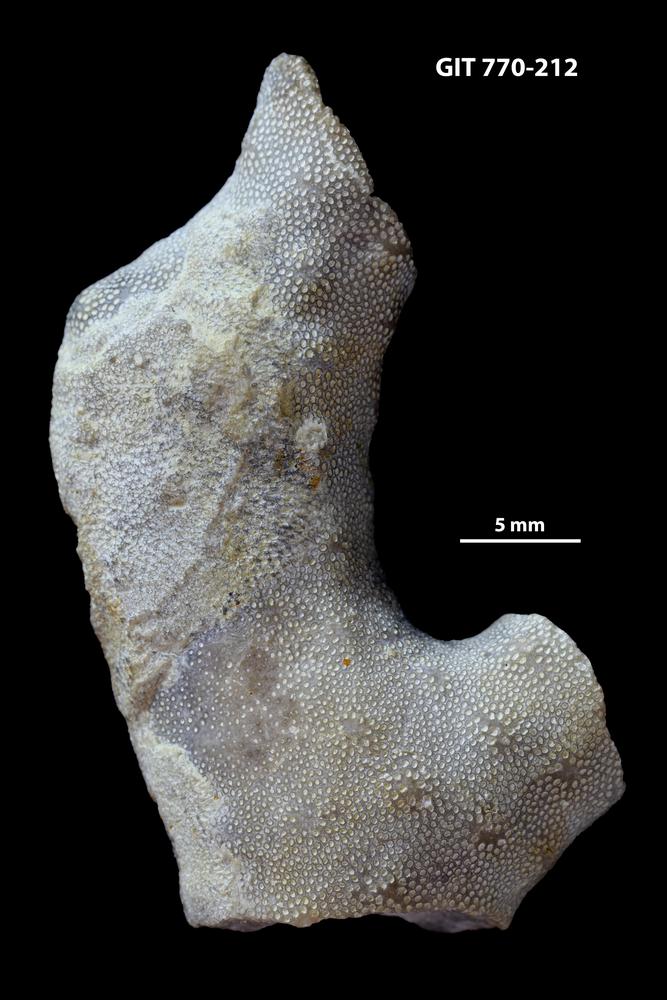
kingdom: Animalia
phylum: Bryozoa
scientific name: Bryozoa
